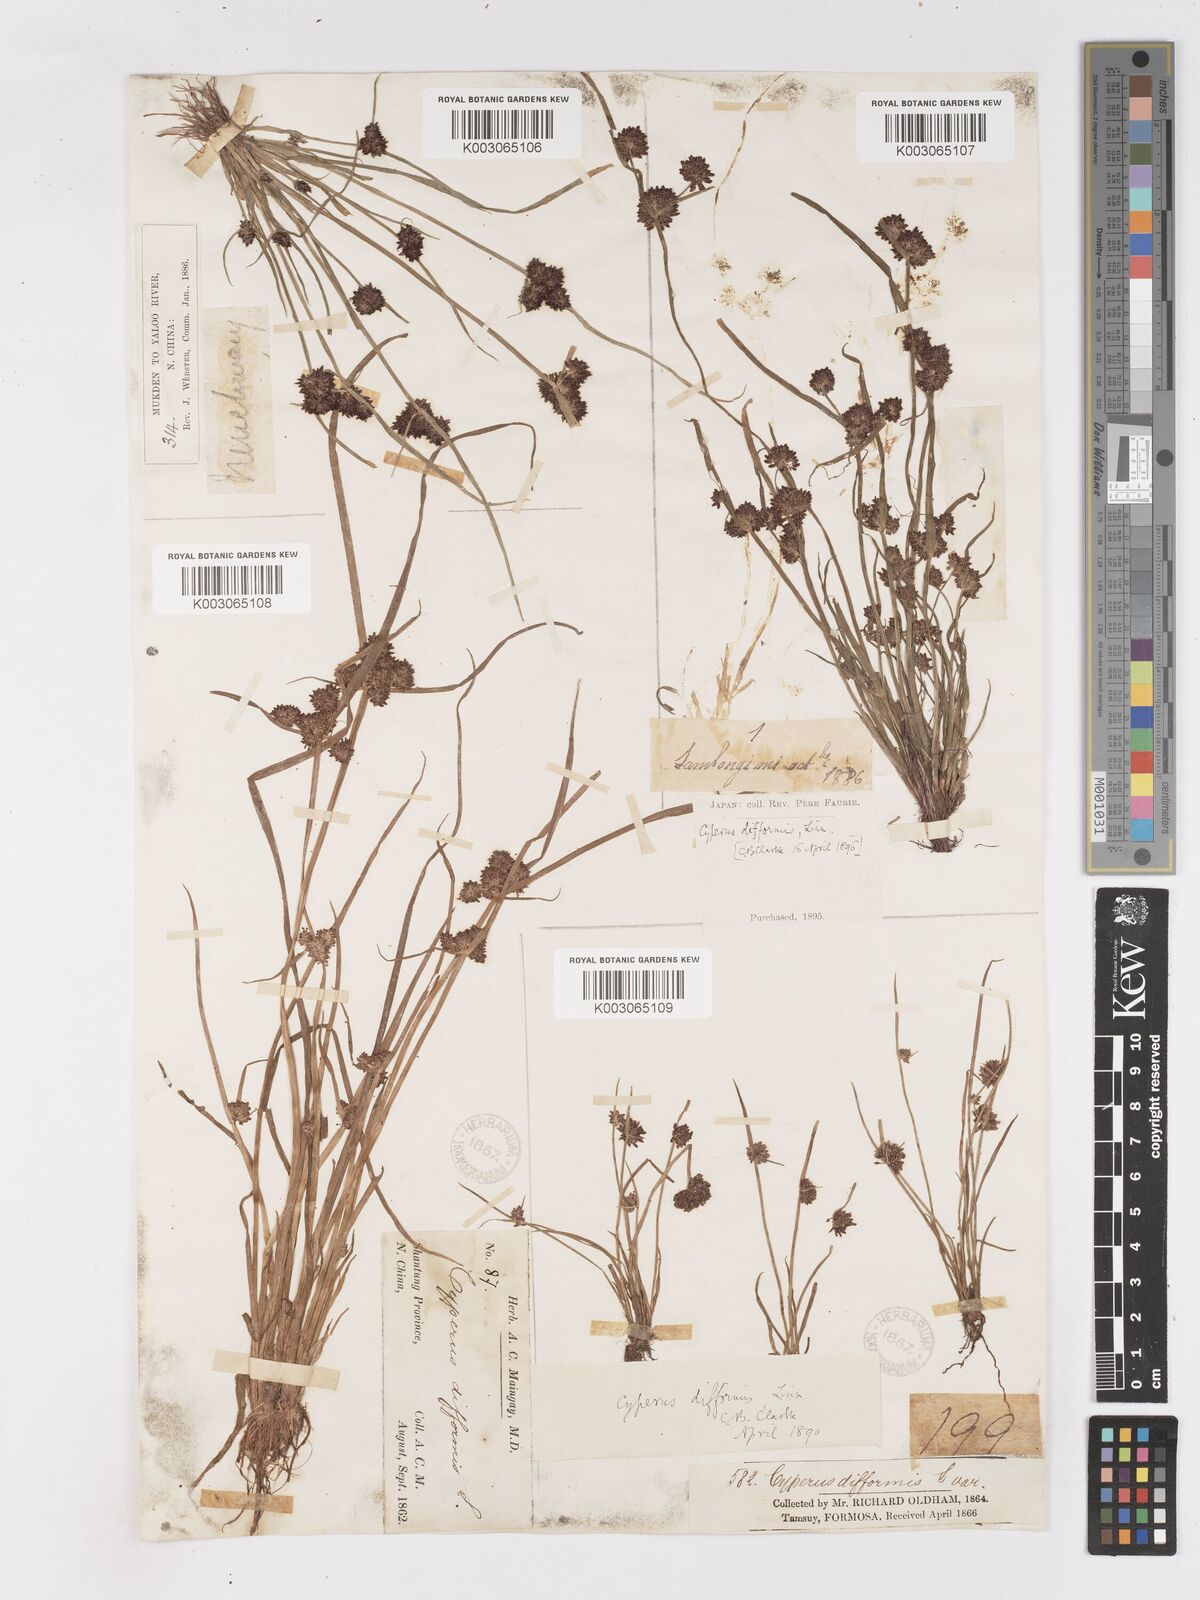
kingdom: Plantae
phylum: Tracheophyta
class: Liliopsida
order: Poales
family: Cyperaceae
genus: Cyperus
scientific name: Cyperus difformis
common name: Variable flatsedge
